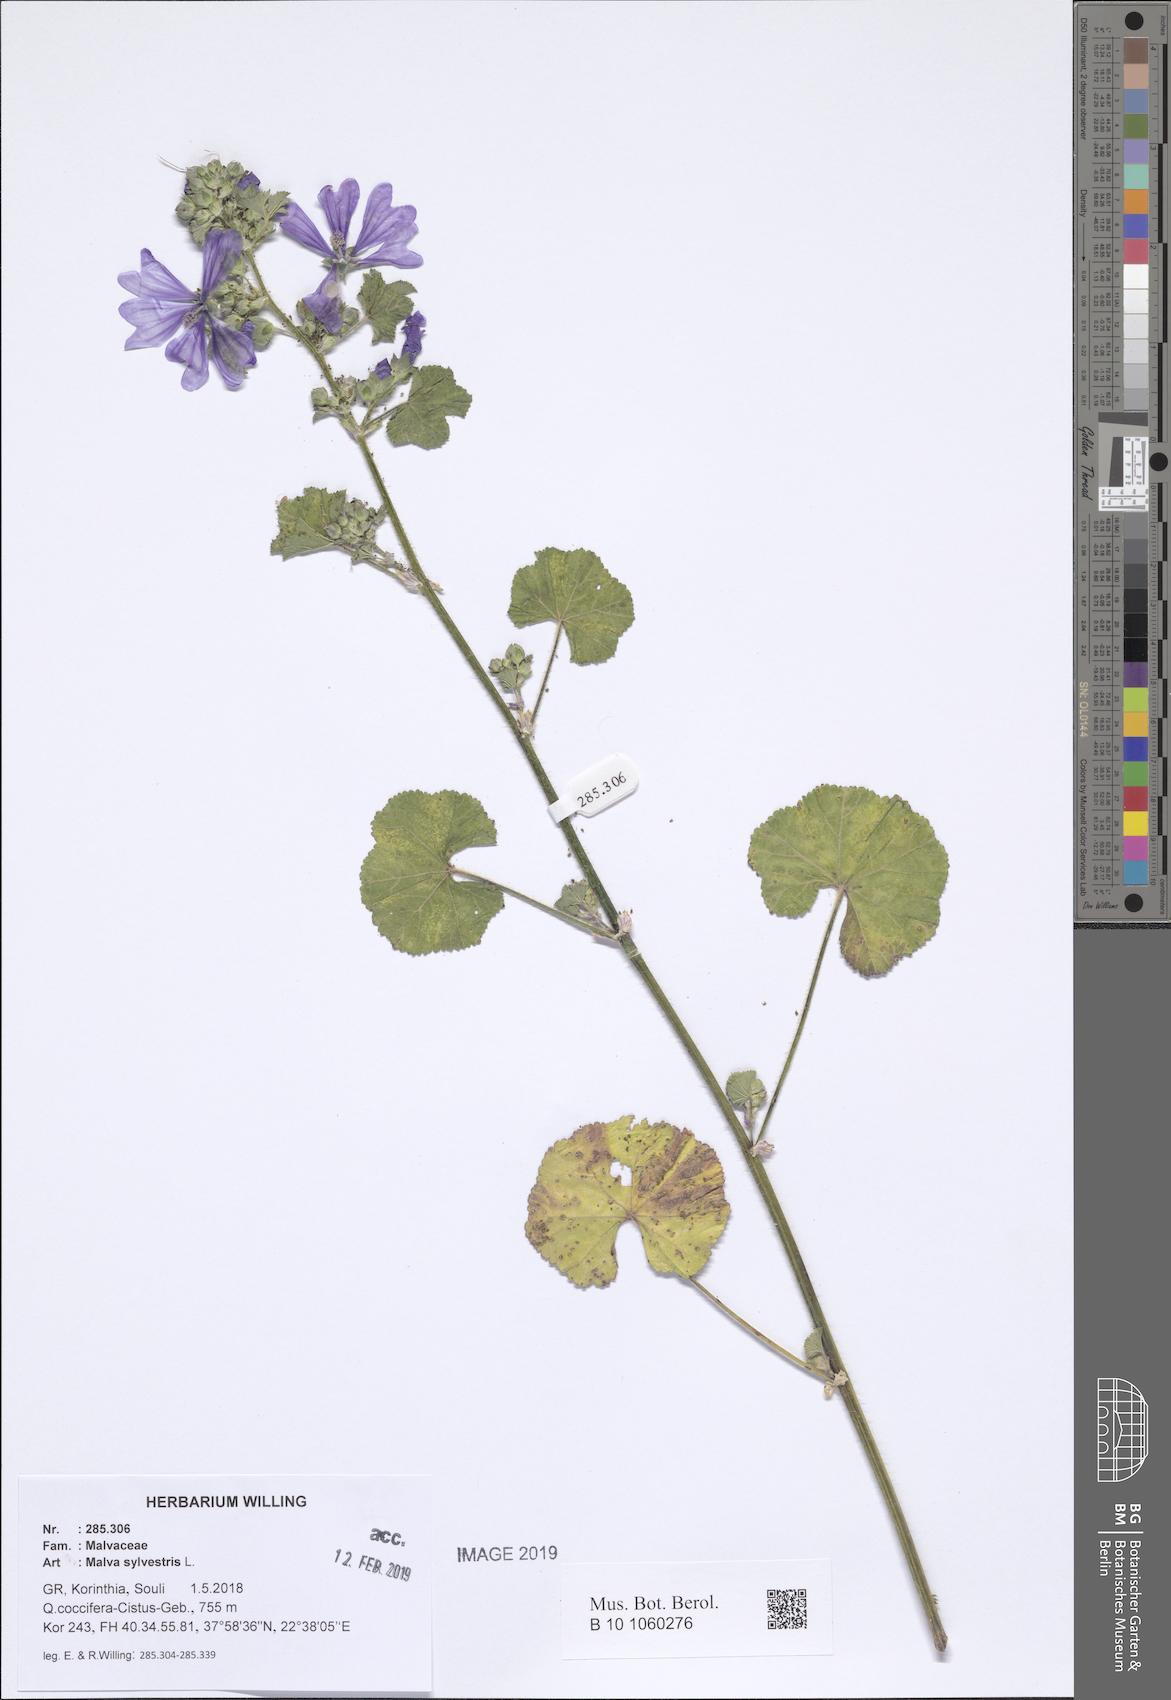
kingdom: Plantae
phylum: Tracheophyta
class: Magnoliopsida
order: Malvales
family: Malvaceae
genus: Malva
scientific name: Malva sylvestris
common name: Common mallow
